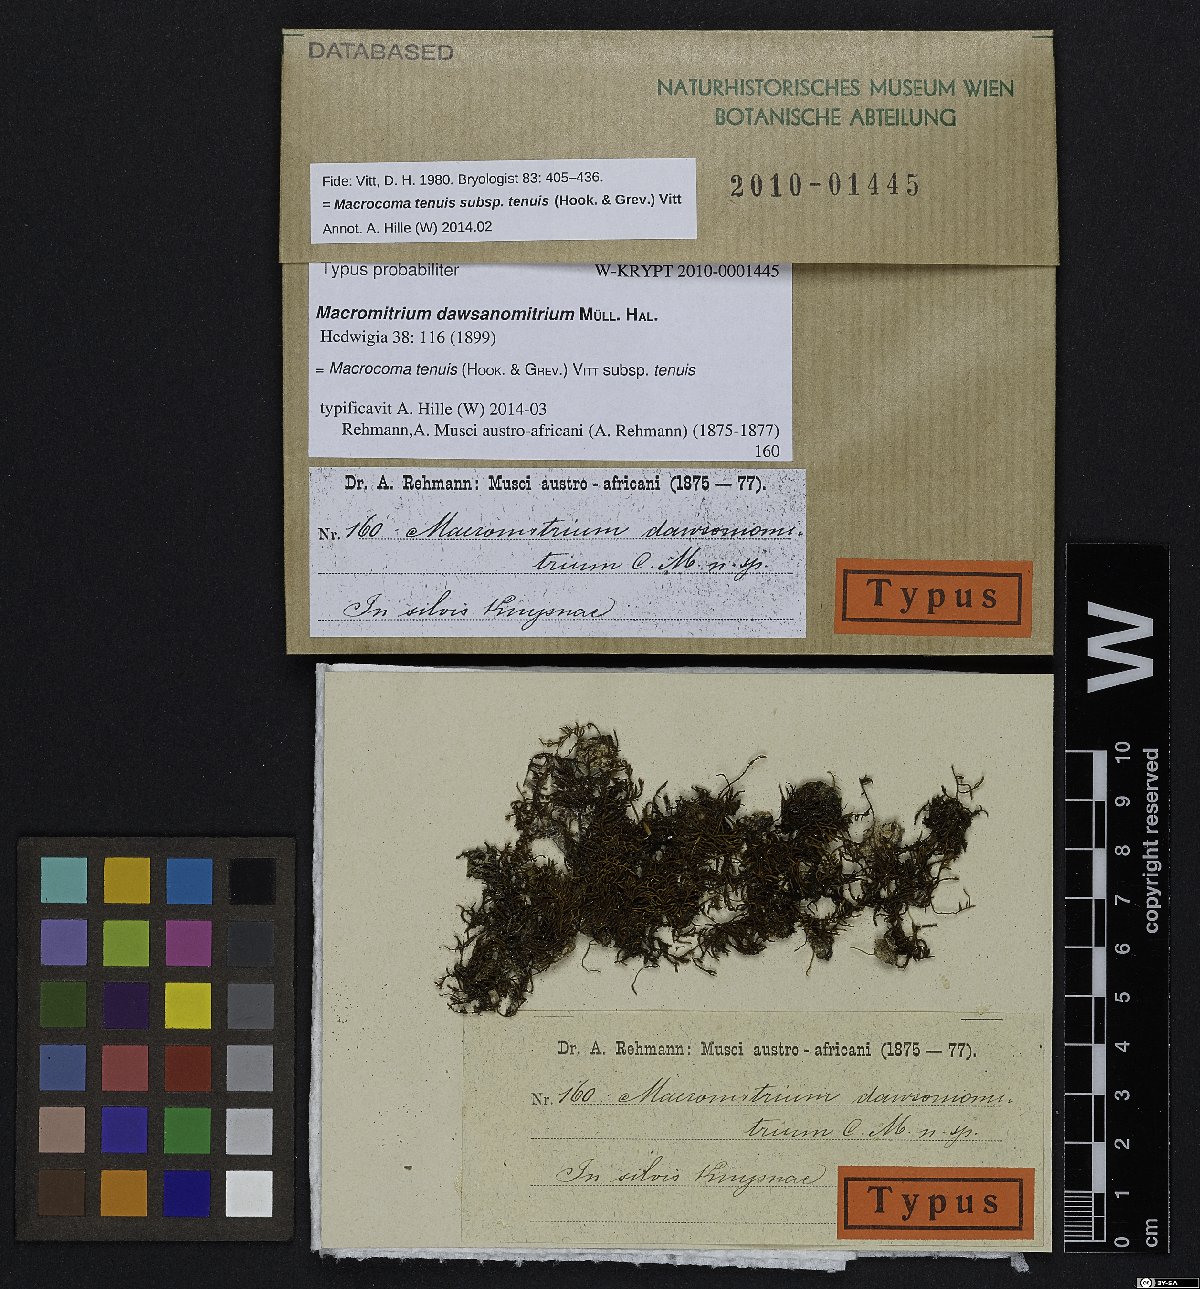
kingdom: Plantae
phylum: Bryophyta
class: Bryopsida
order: Orthotrichales
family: Orthotrichaceae
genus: Macromitrium
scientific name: Macromitrium
